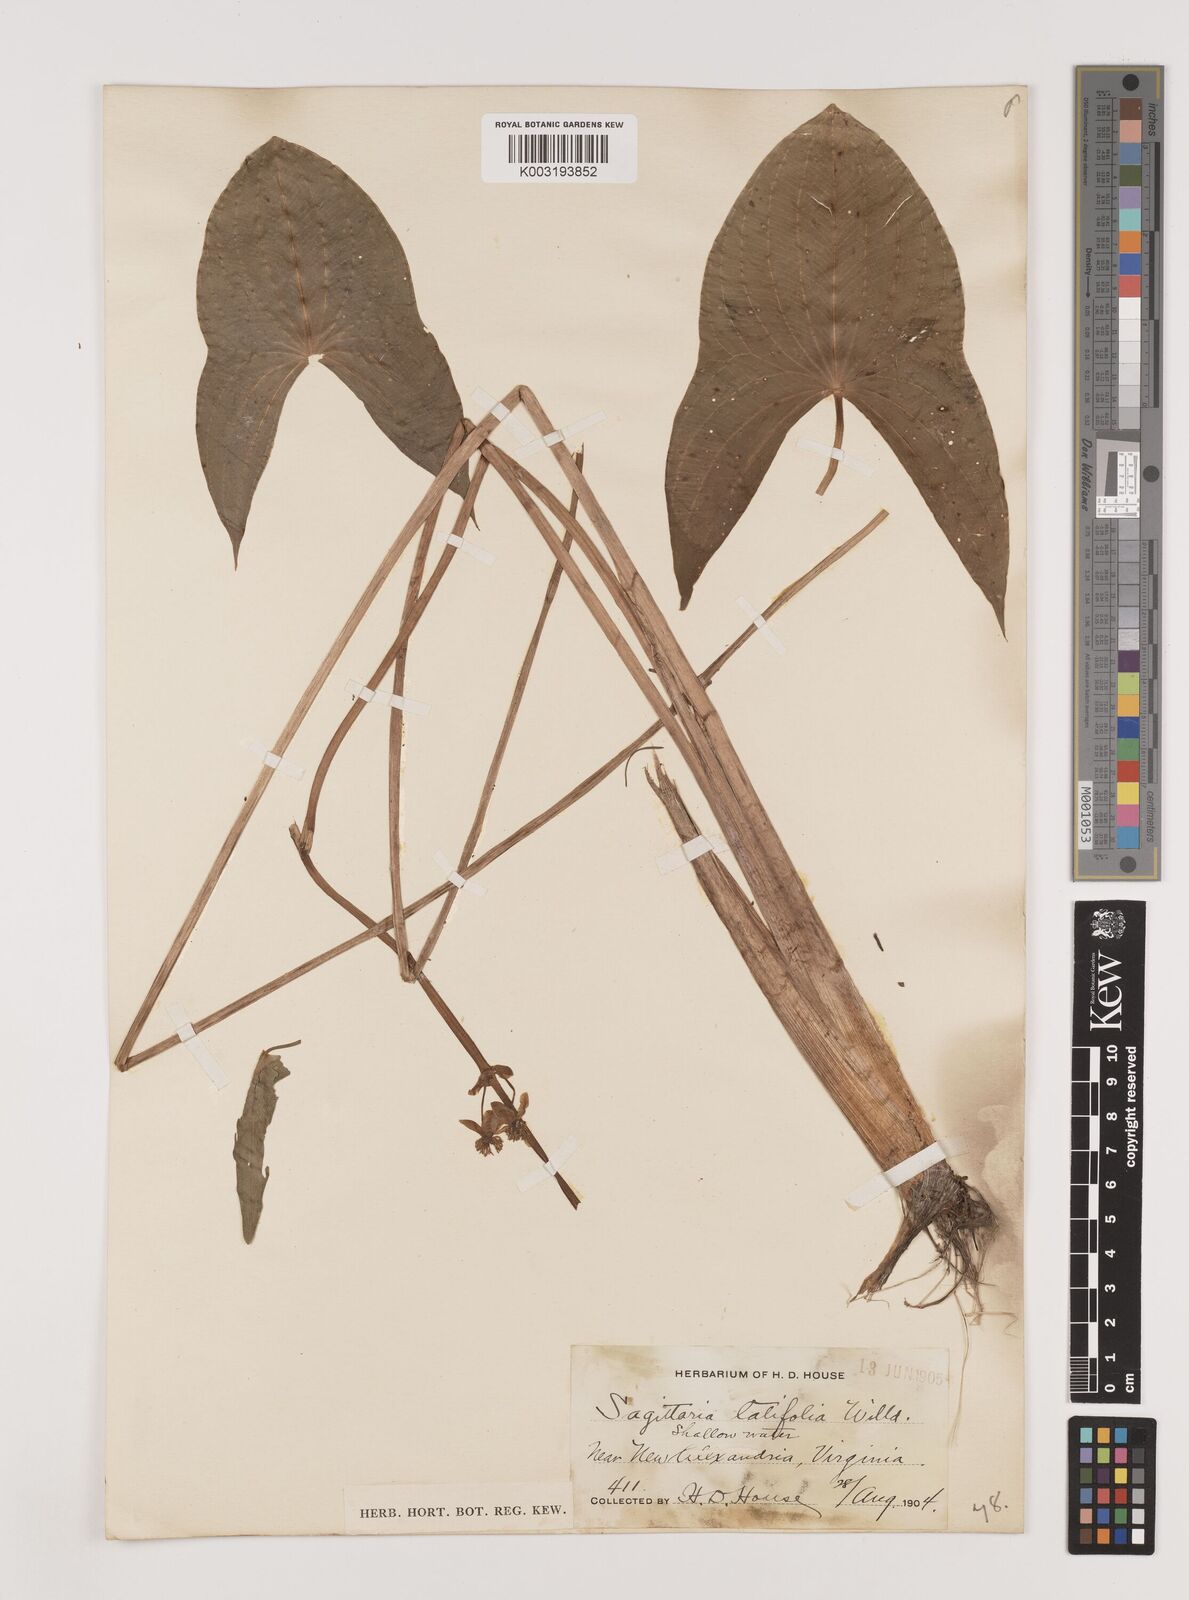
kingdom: Plantae
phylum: Tracheophyta
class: Liliopsida
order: Alismatales
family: Alismataceae
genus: Sagittaria
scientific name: Sagittaria latifolia
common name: Duck-potato
